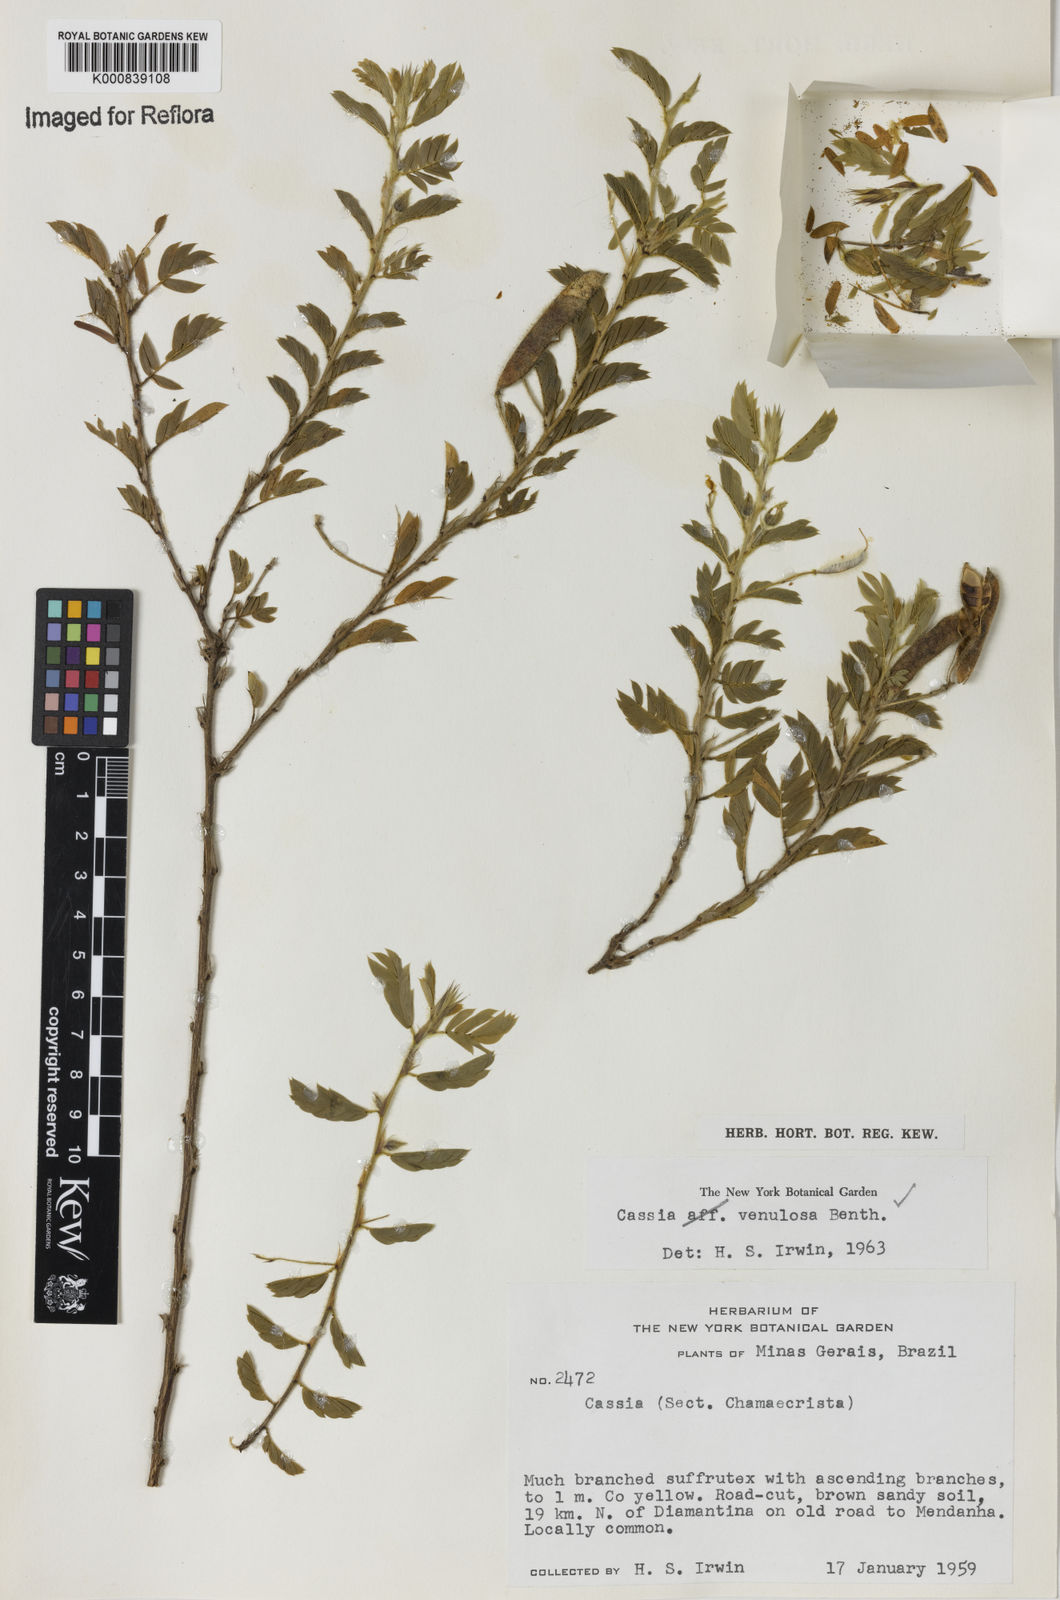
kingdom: Plantae
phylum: Tracheophyta
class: Magnoliopsida
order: Fabales
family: Fabaceae
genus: Chamaecrista
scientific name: Chamaecrista venulosa
